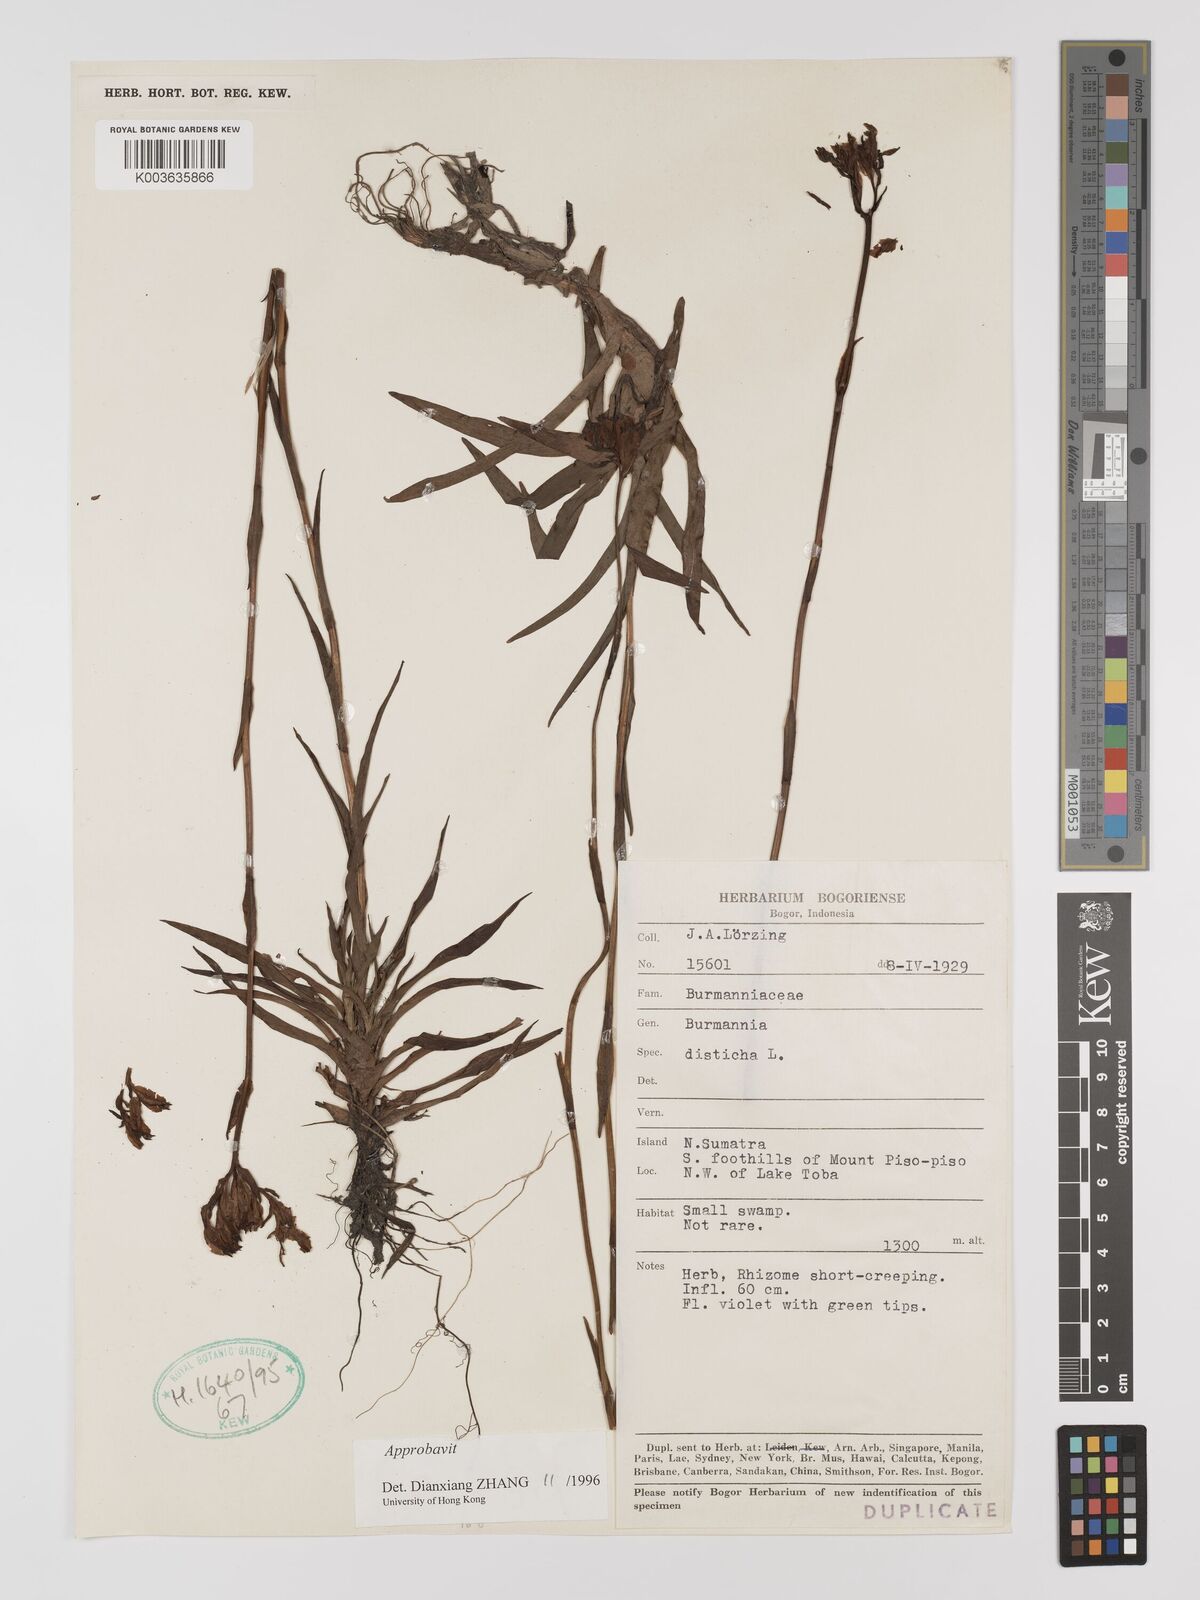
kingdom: Plantae
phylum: Tracheophyta
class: Liliopsida
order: Dioscoreales
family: Burmanniaceae
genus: Burmannia
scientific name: Burmannia disticha
